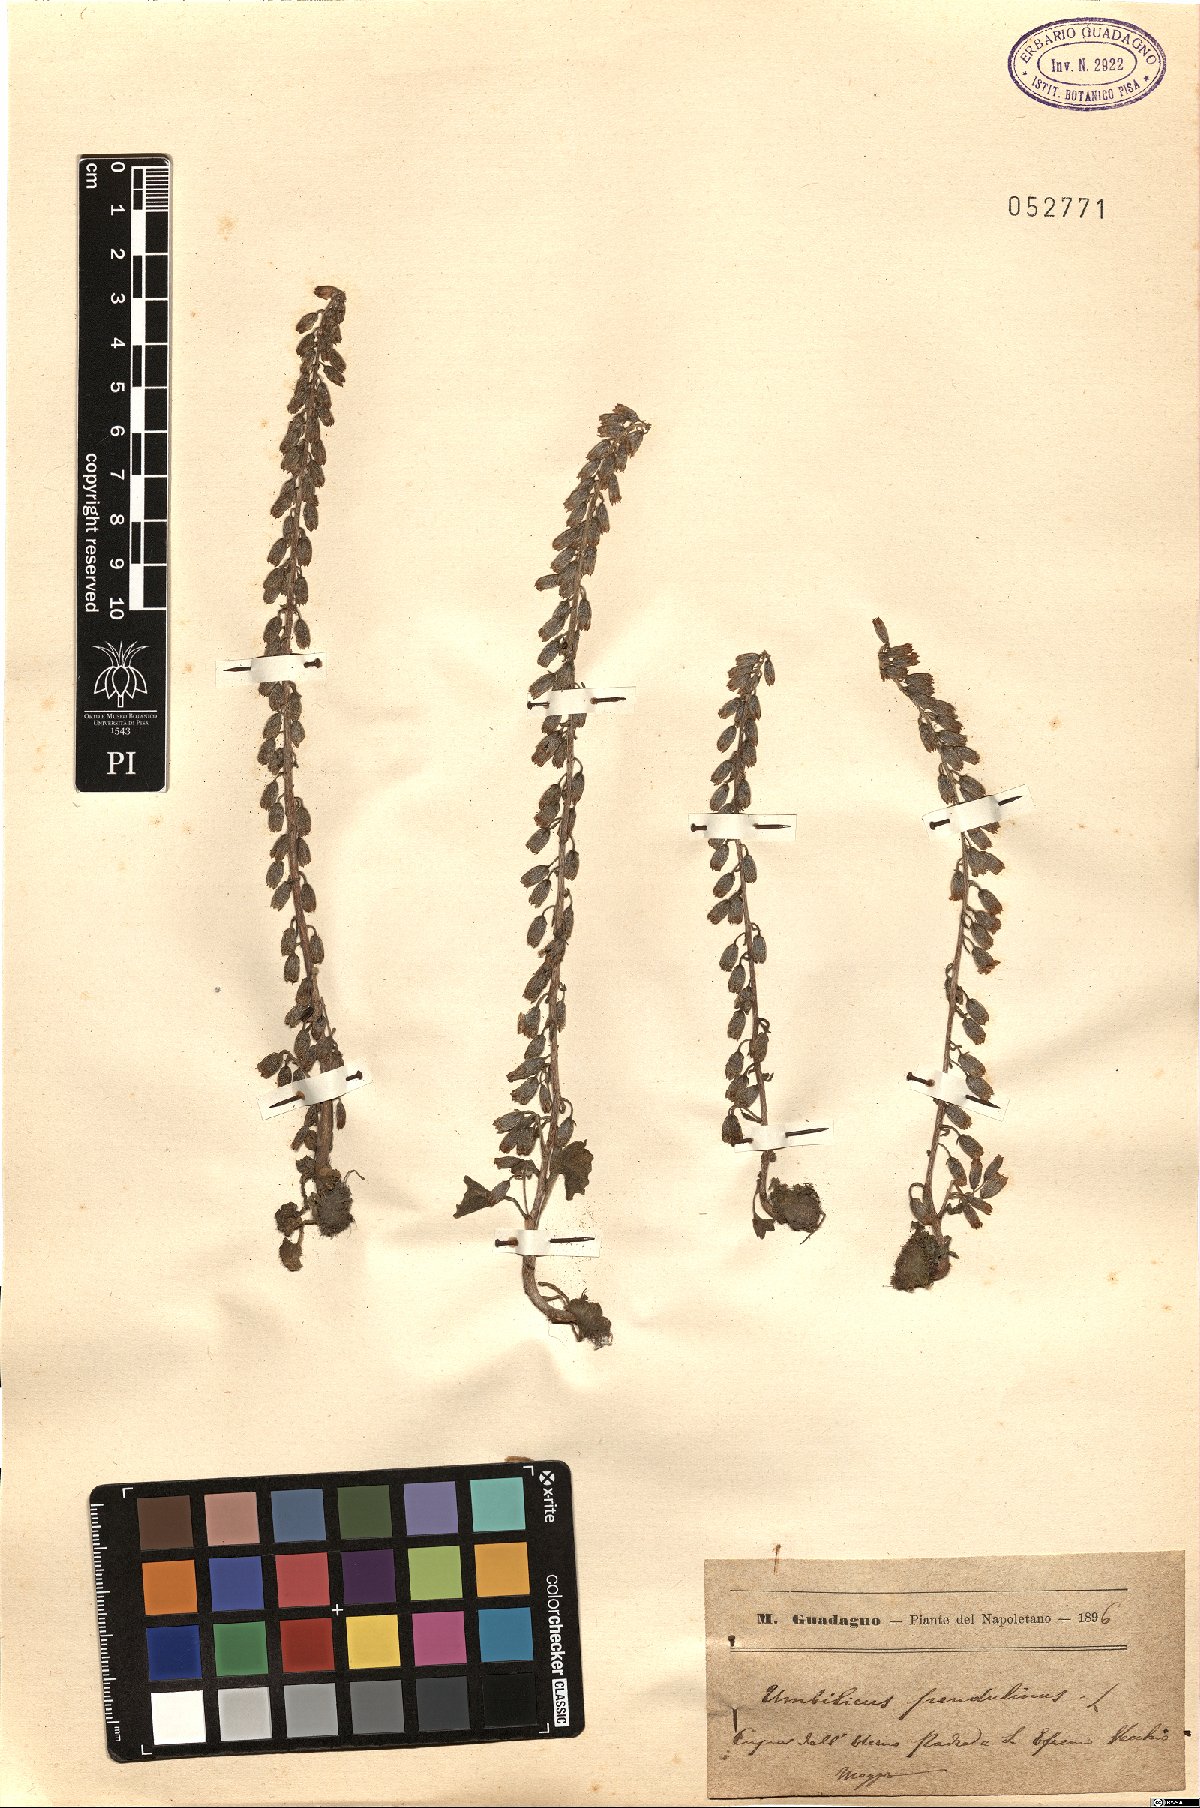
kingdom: Plantae
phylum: Tracheophyta
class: Magnoliopsida
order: Saxifragales
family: Crassulaceae
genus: Umbilicus
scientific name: Umbilicus rupestris
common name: Navelwort
